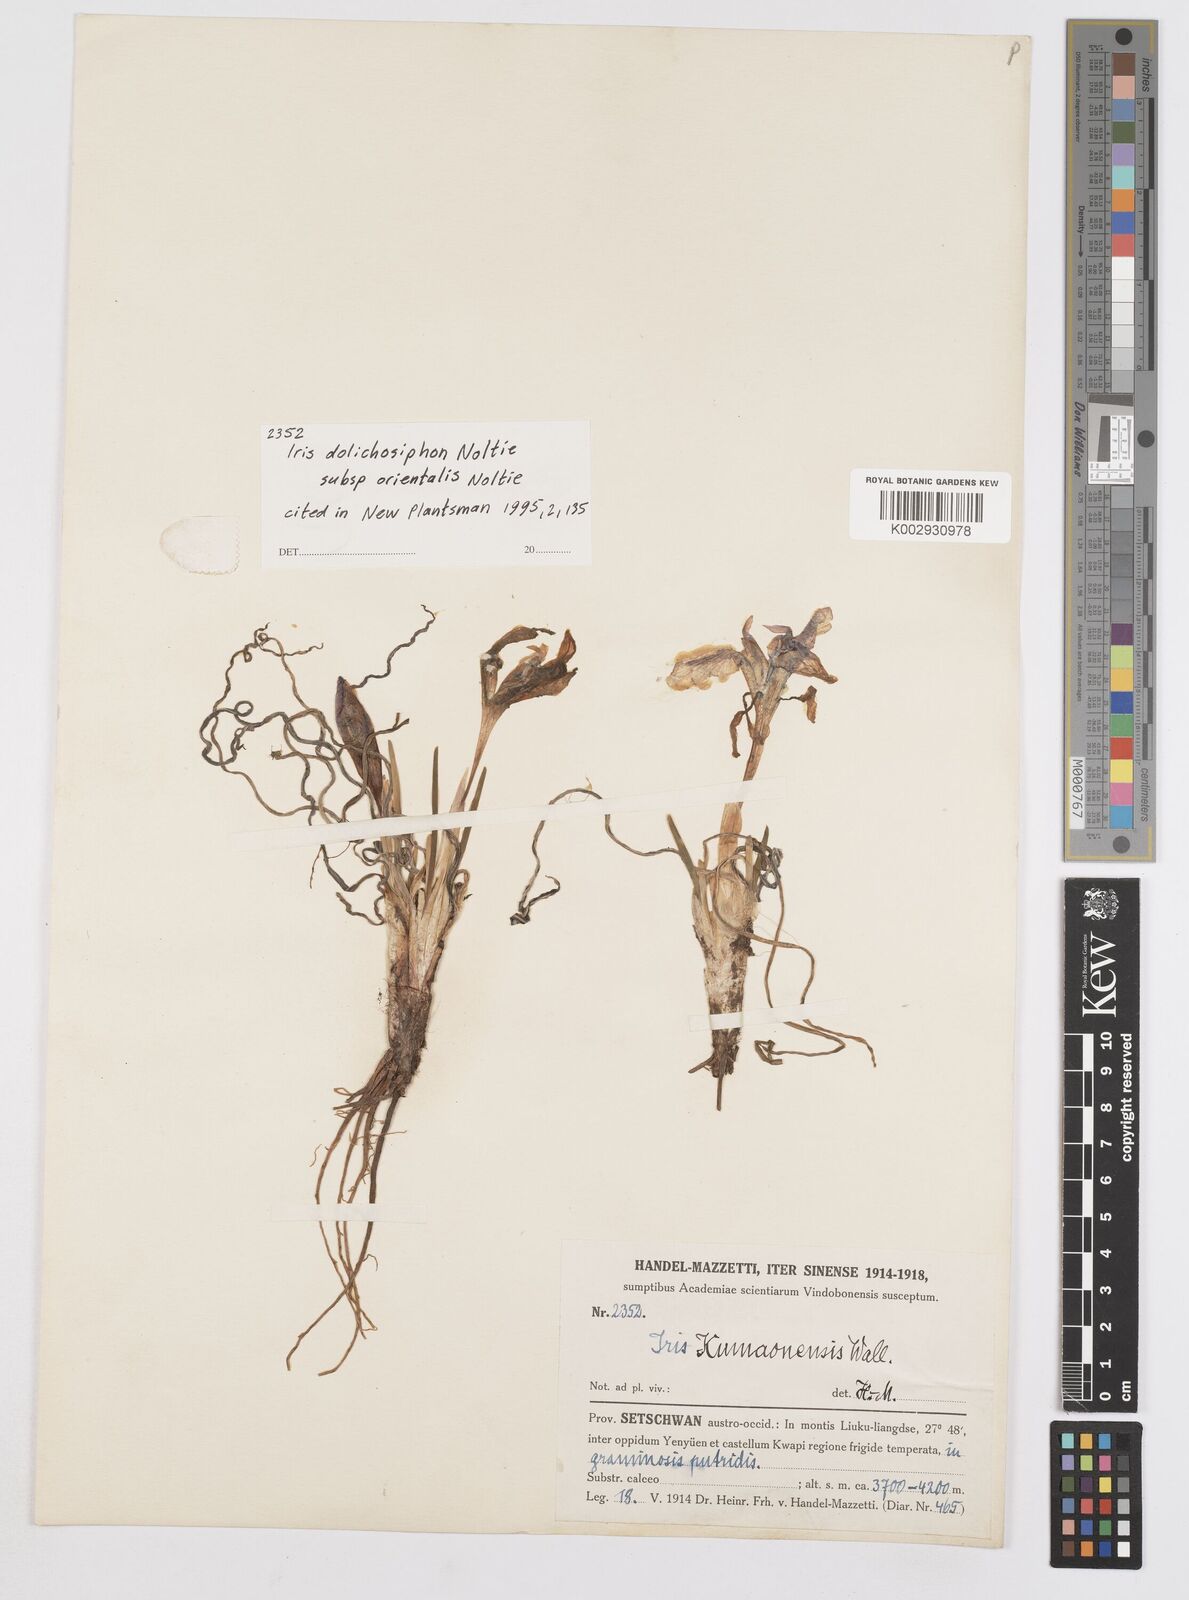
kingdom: Plantae
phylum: Tracheophyta
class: Liliopsida
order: Asparagales
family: Iridaceae
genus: Iris
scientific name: Iris dolichosiphon
